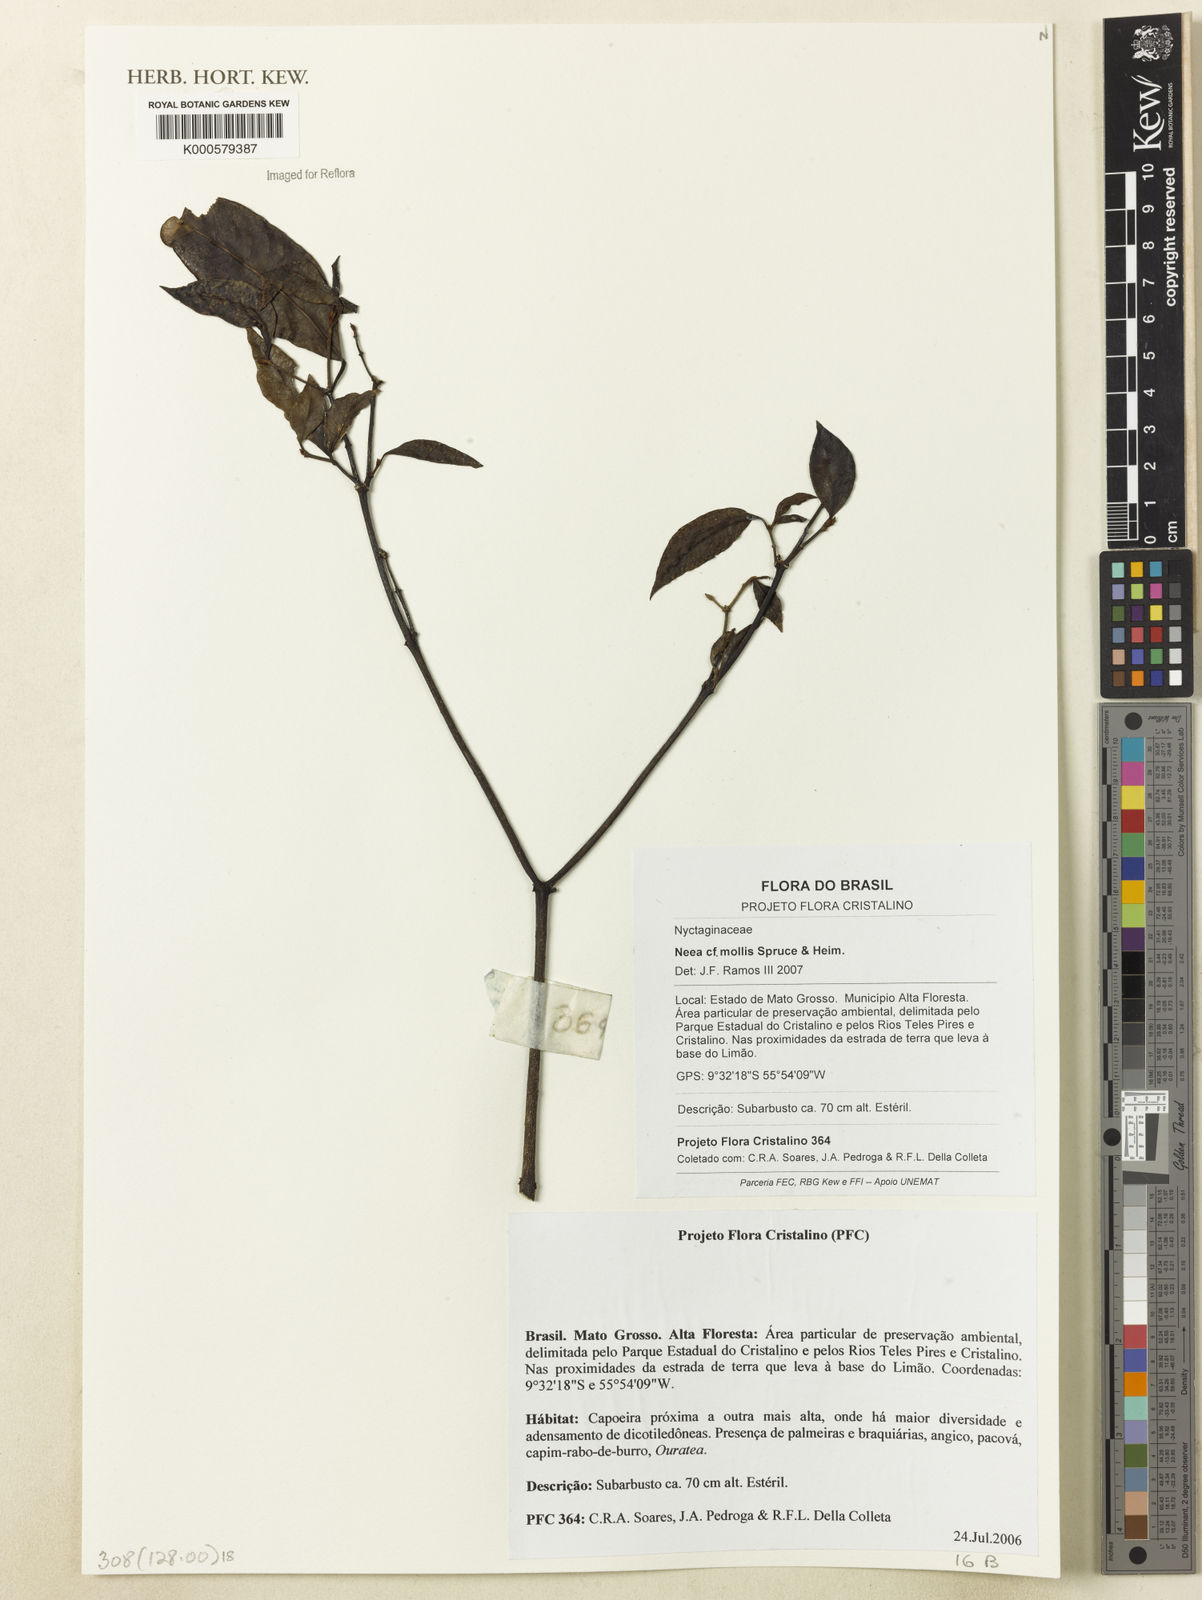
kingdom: Plantae
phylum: Tracheophyta
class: Magnoliopsida
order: Caryophyllales
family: Nyctaginaceae
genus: Neea
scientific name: Neea
